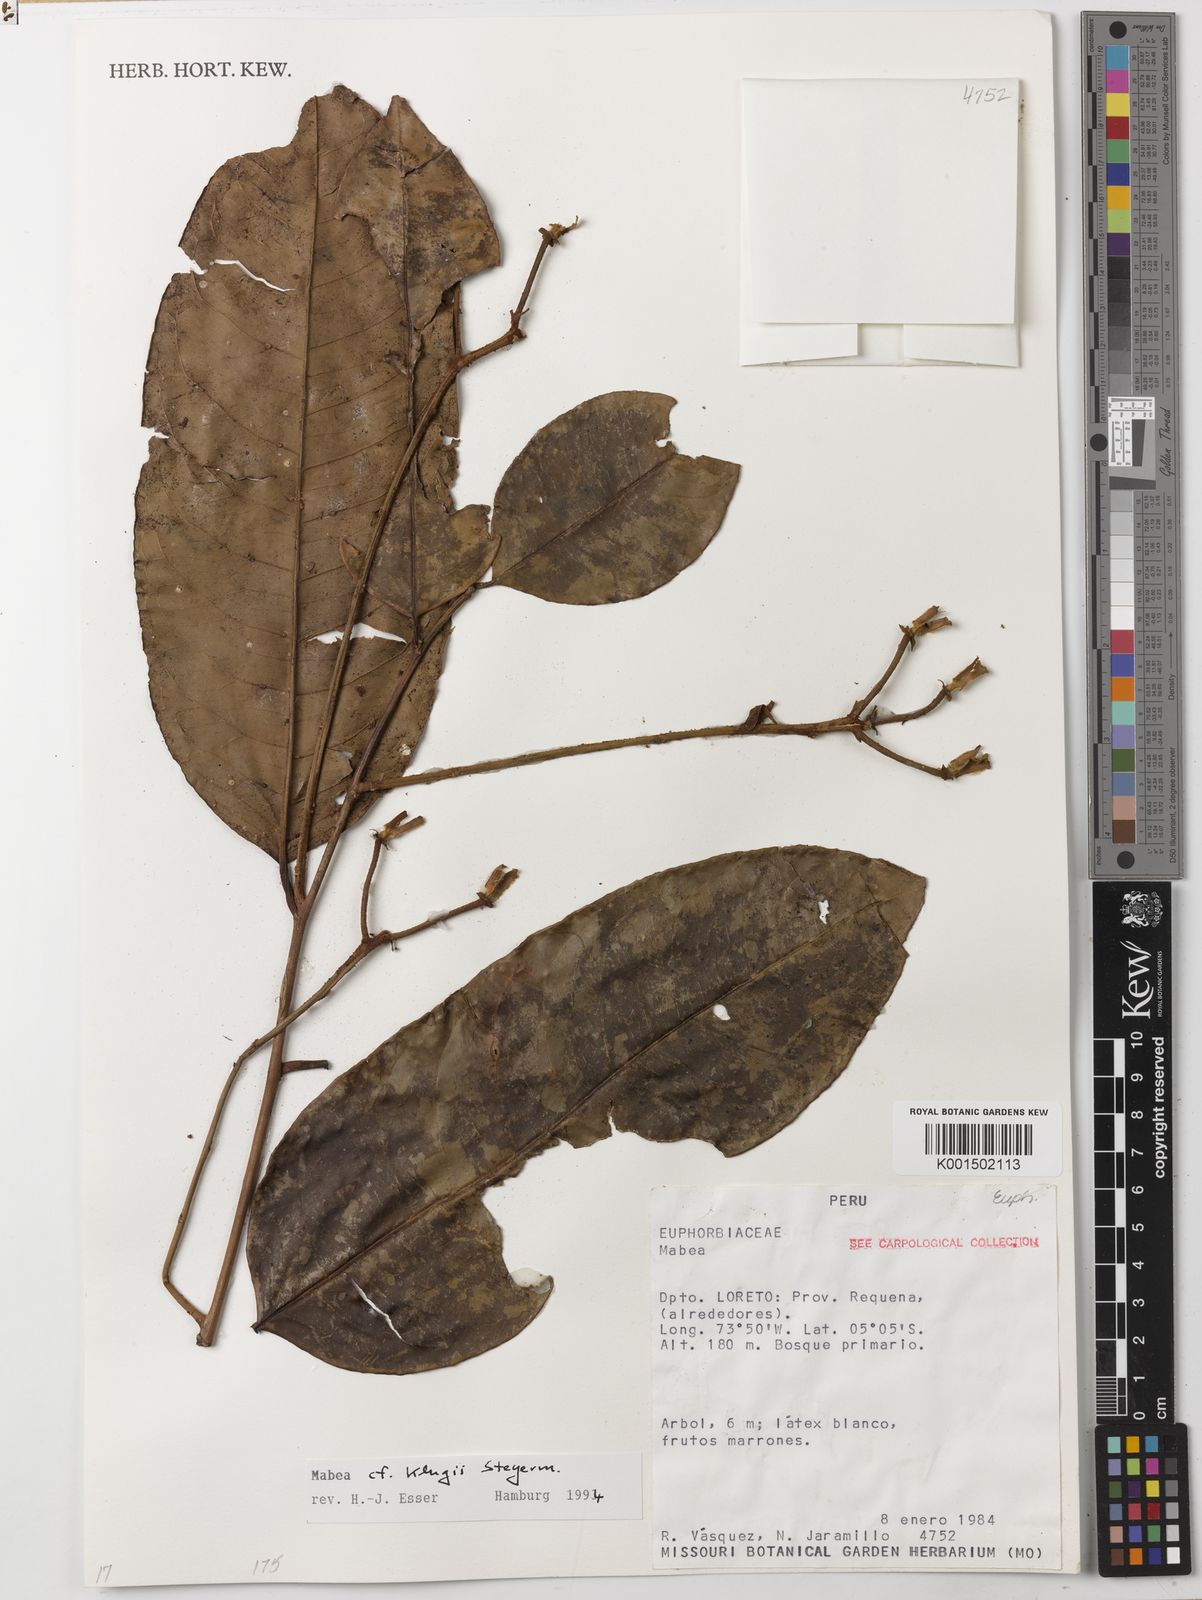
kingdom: Plantae
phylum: Tracheophyta
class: Magnoliopsida
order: Malpighiales
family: Euphorbiaceae
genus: Mabea
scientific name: Mabea klugii
